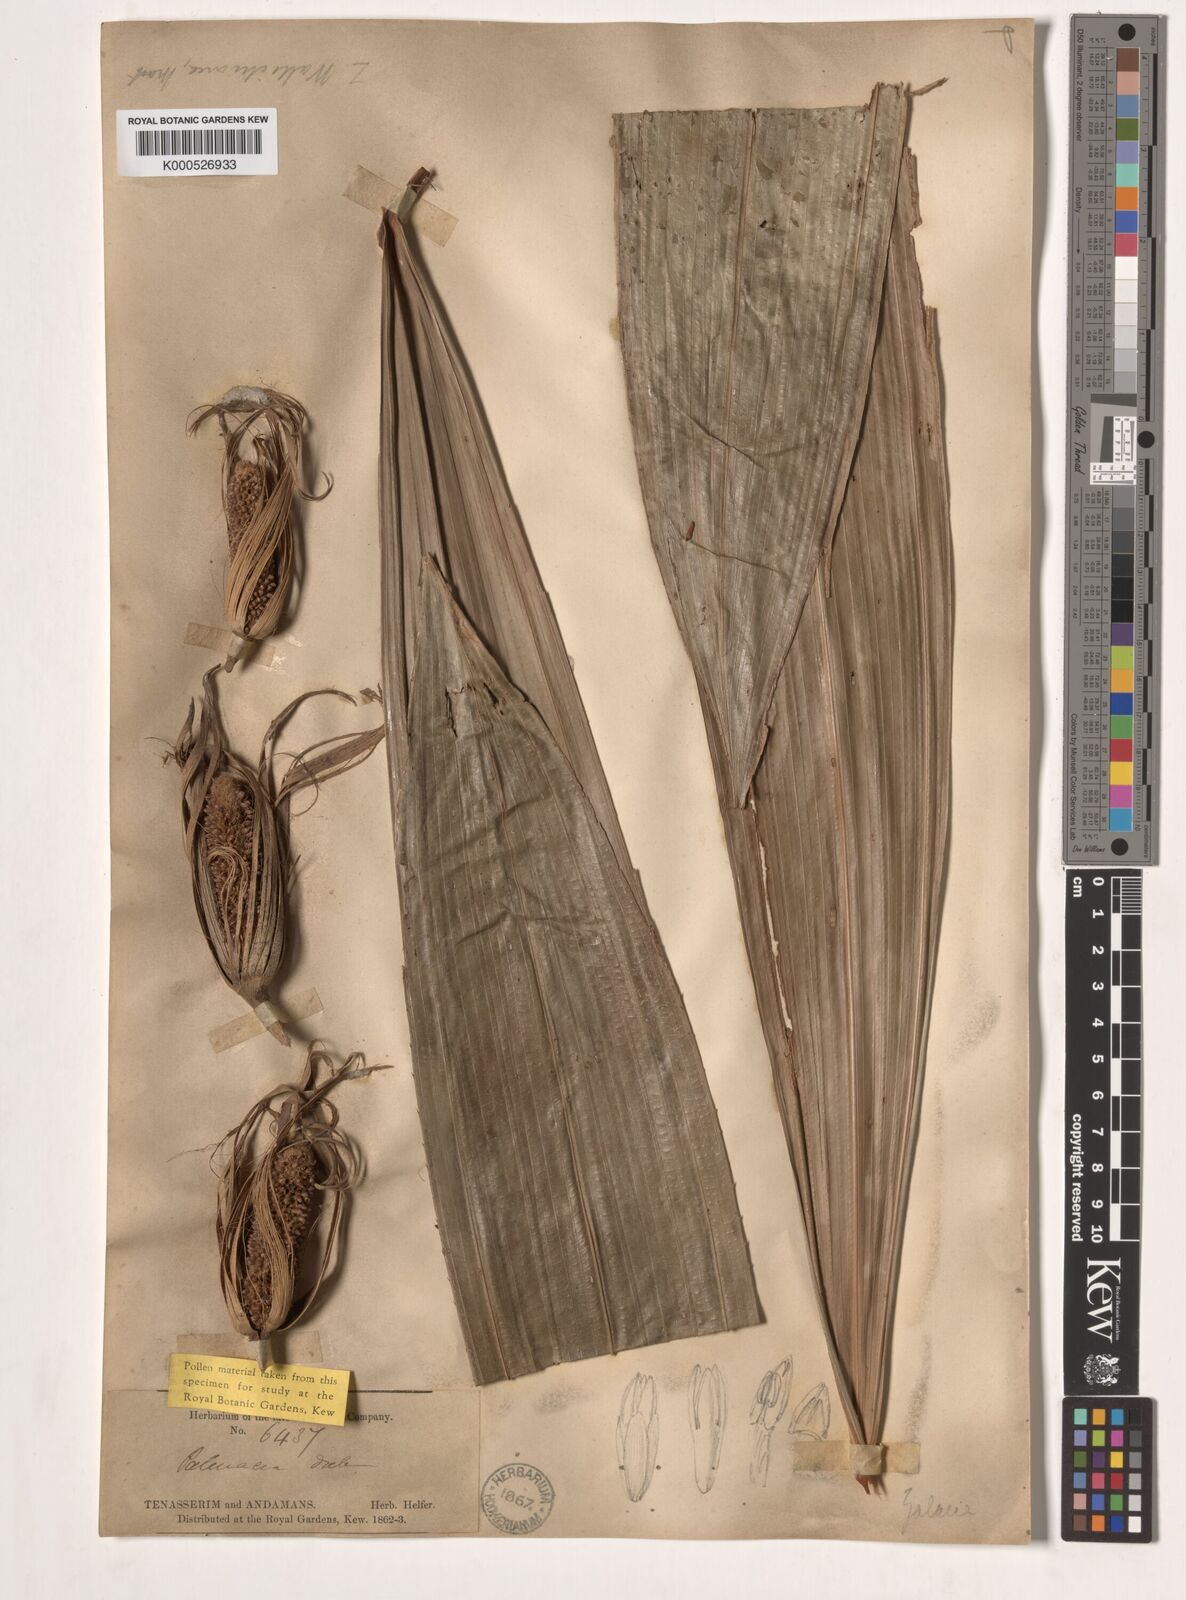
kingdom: Plantae
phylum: Tracheophyta
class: Liliopsida
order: Arecales
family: Arecaceae
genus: Salacca
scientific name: Salacca wallichiana
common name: Rakum palm
